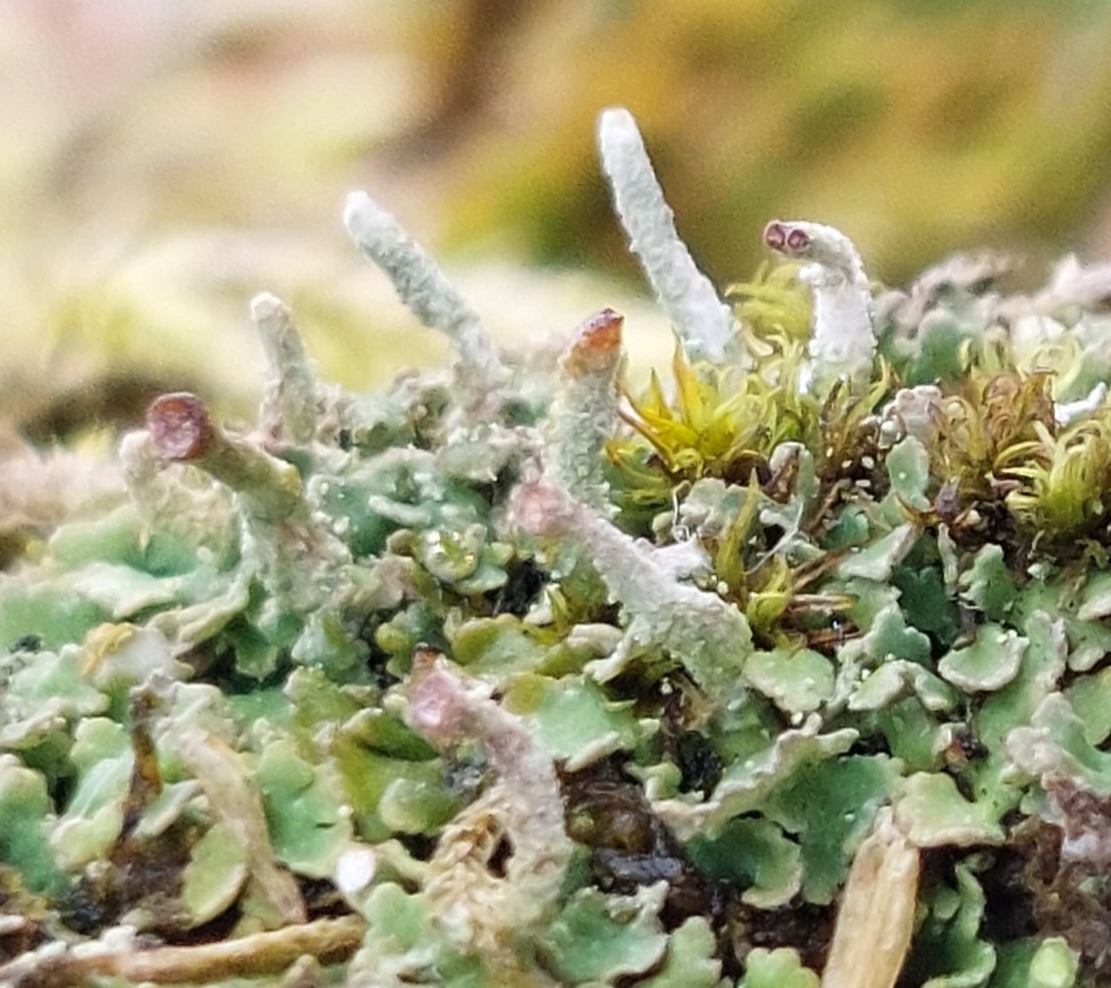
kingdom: Fungi
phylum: Ascomycota
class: Lecanoromycetes
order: Lecanorales
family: Cladoniaceae
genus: Cladonia
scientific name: Cladonia chlorophaea
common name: Brungrøn bægerlav
